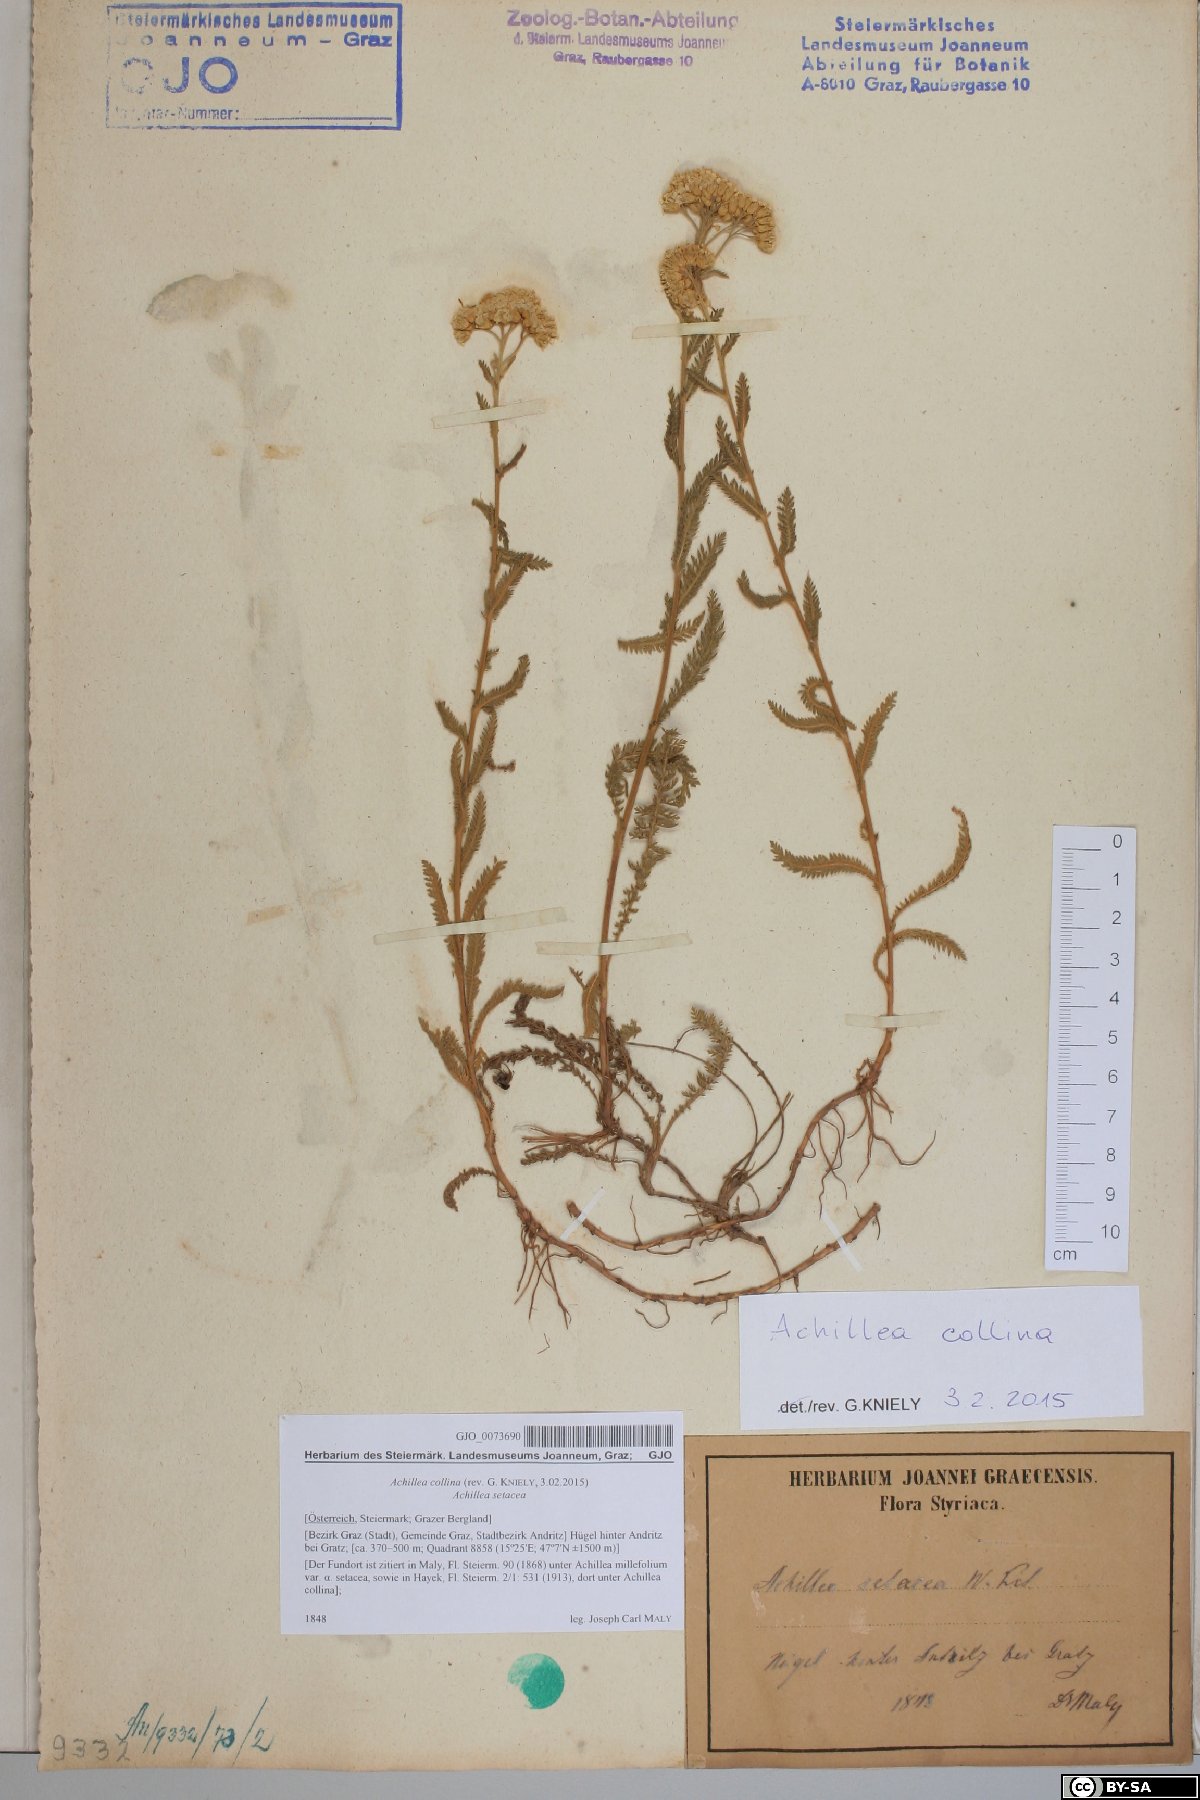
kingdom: Plantae
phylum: Tracheophyta
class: Magnoliopsida
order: Asterales
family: Asteraceae
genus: Achillea
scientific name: Achillea collina
